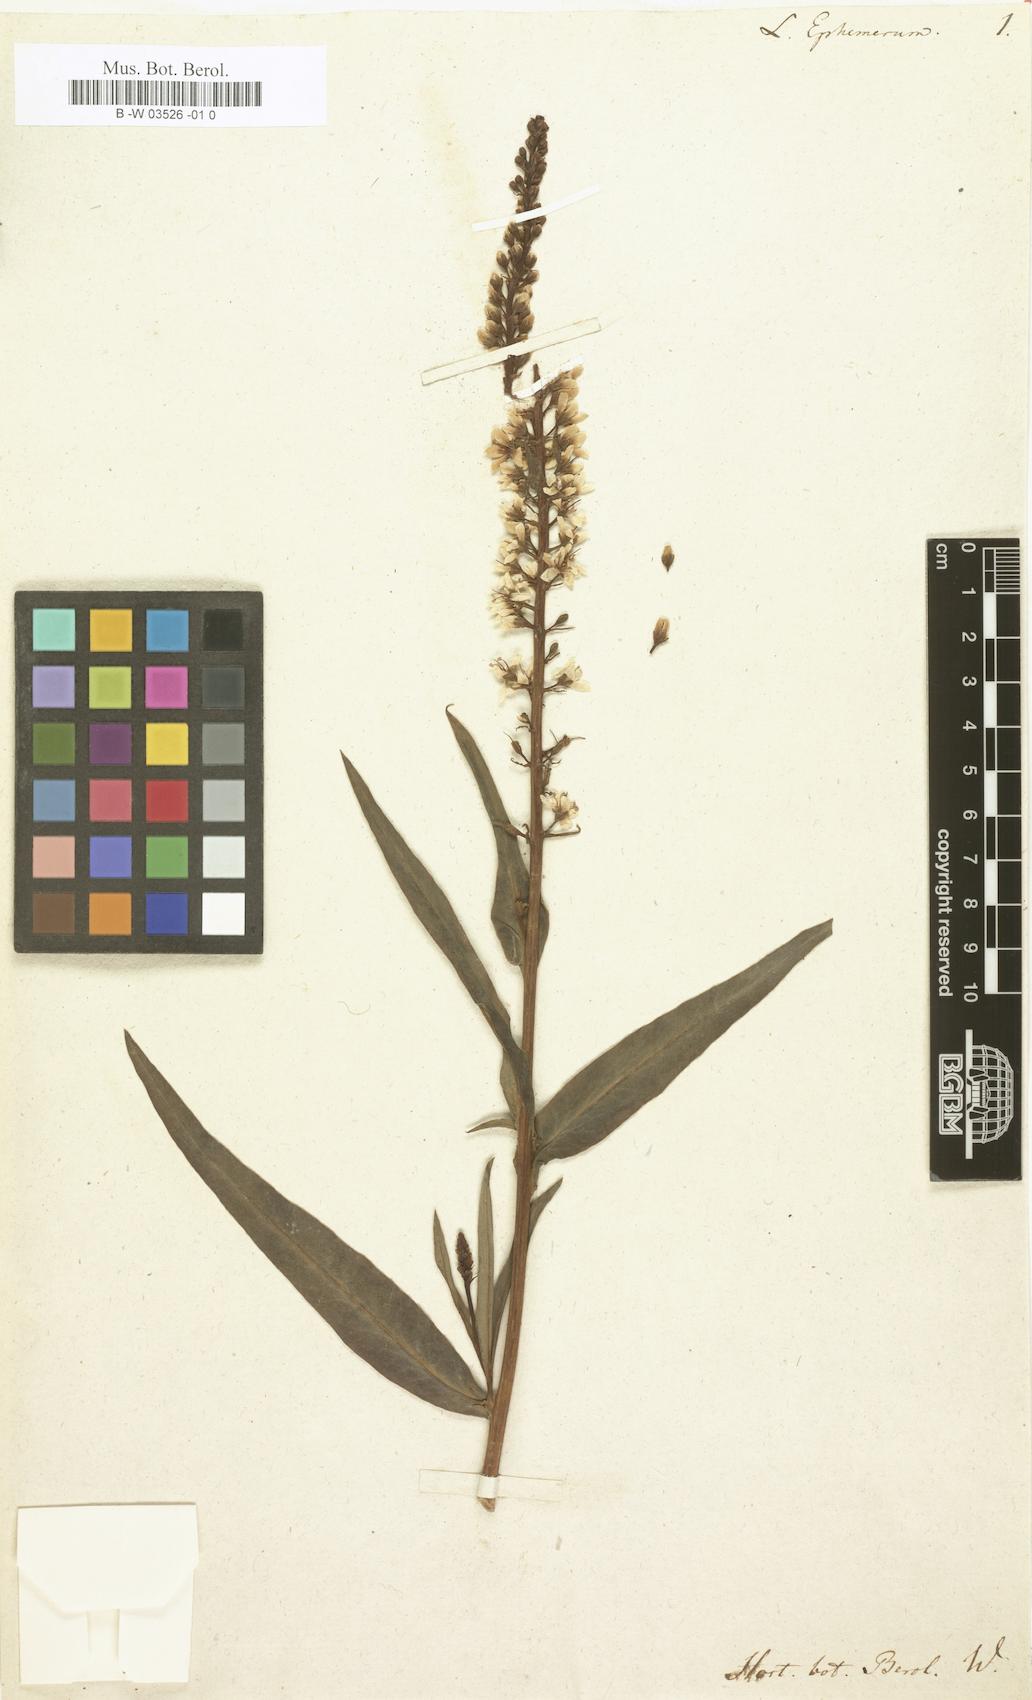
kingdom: Plantae
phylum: Tracheophyta
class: Magnoliopsida
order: Ericales
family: Primulaceae
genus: Lysimachia
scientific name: Lysimachia ephemerum
